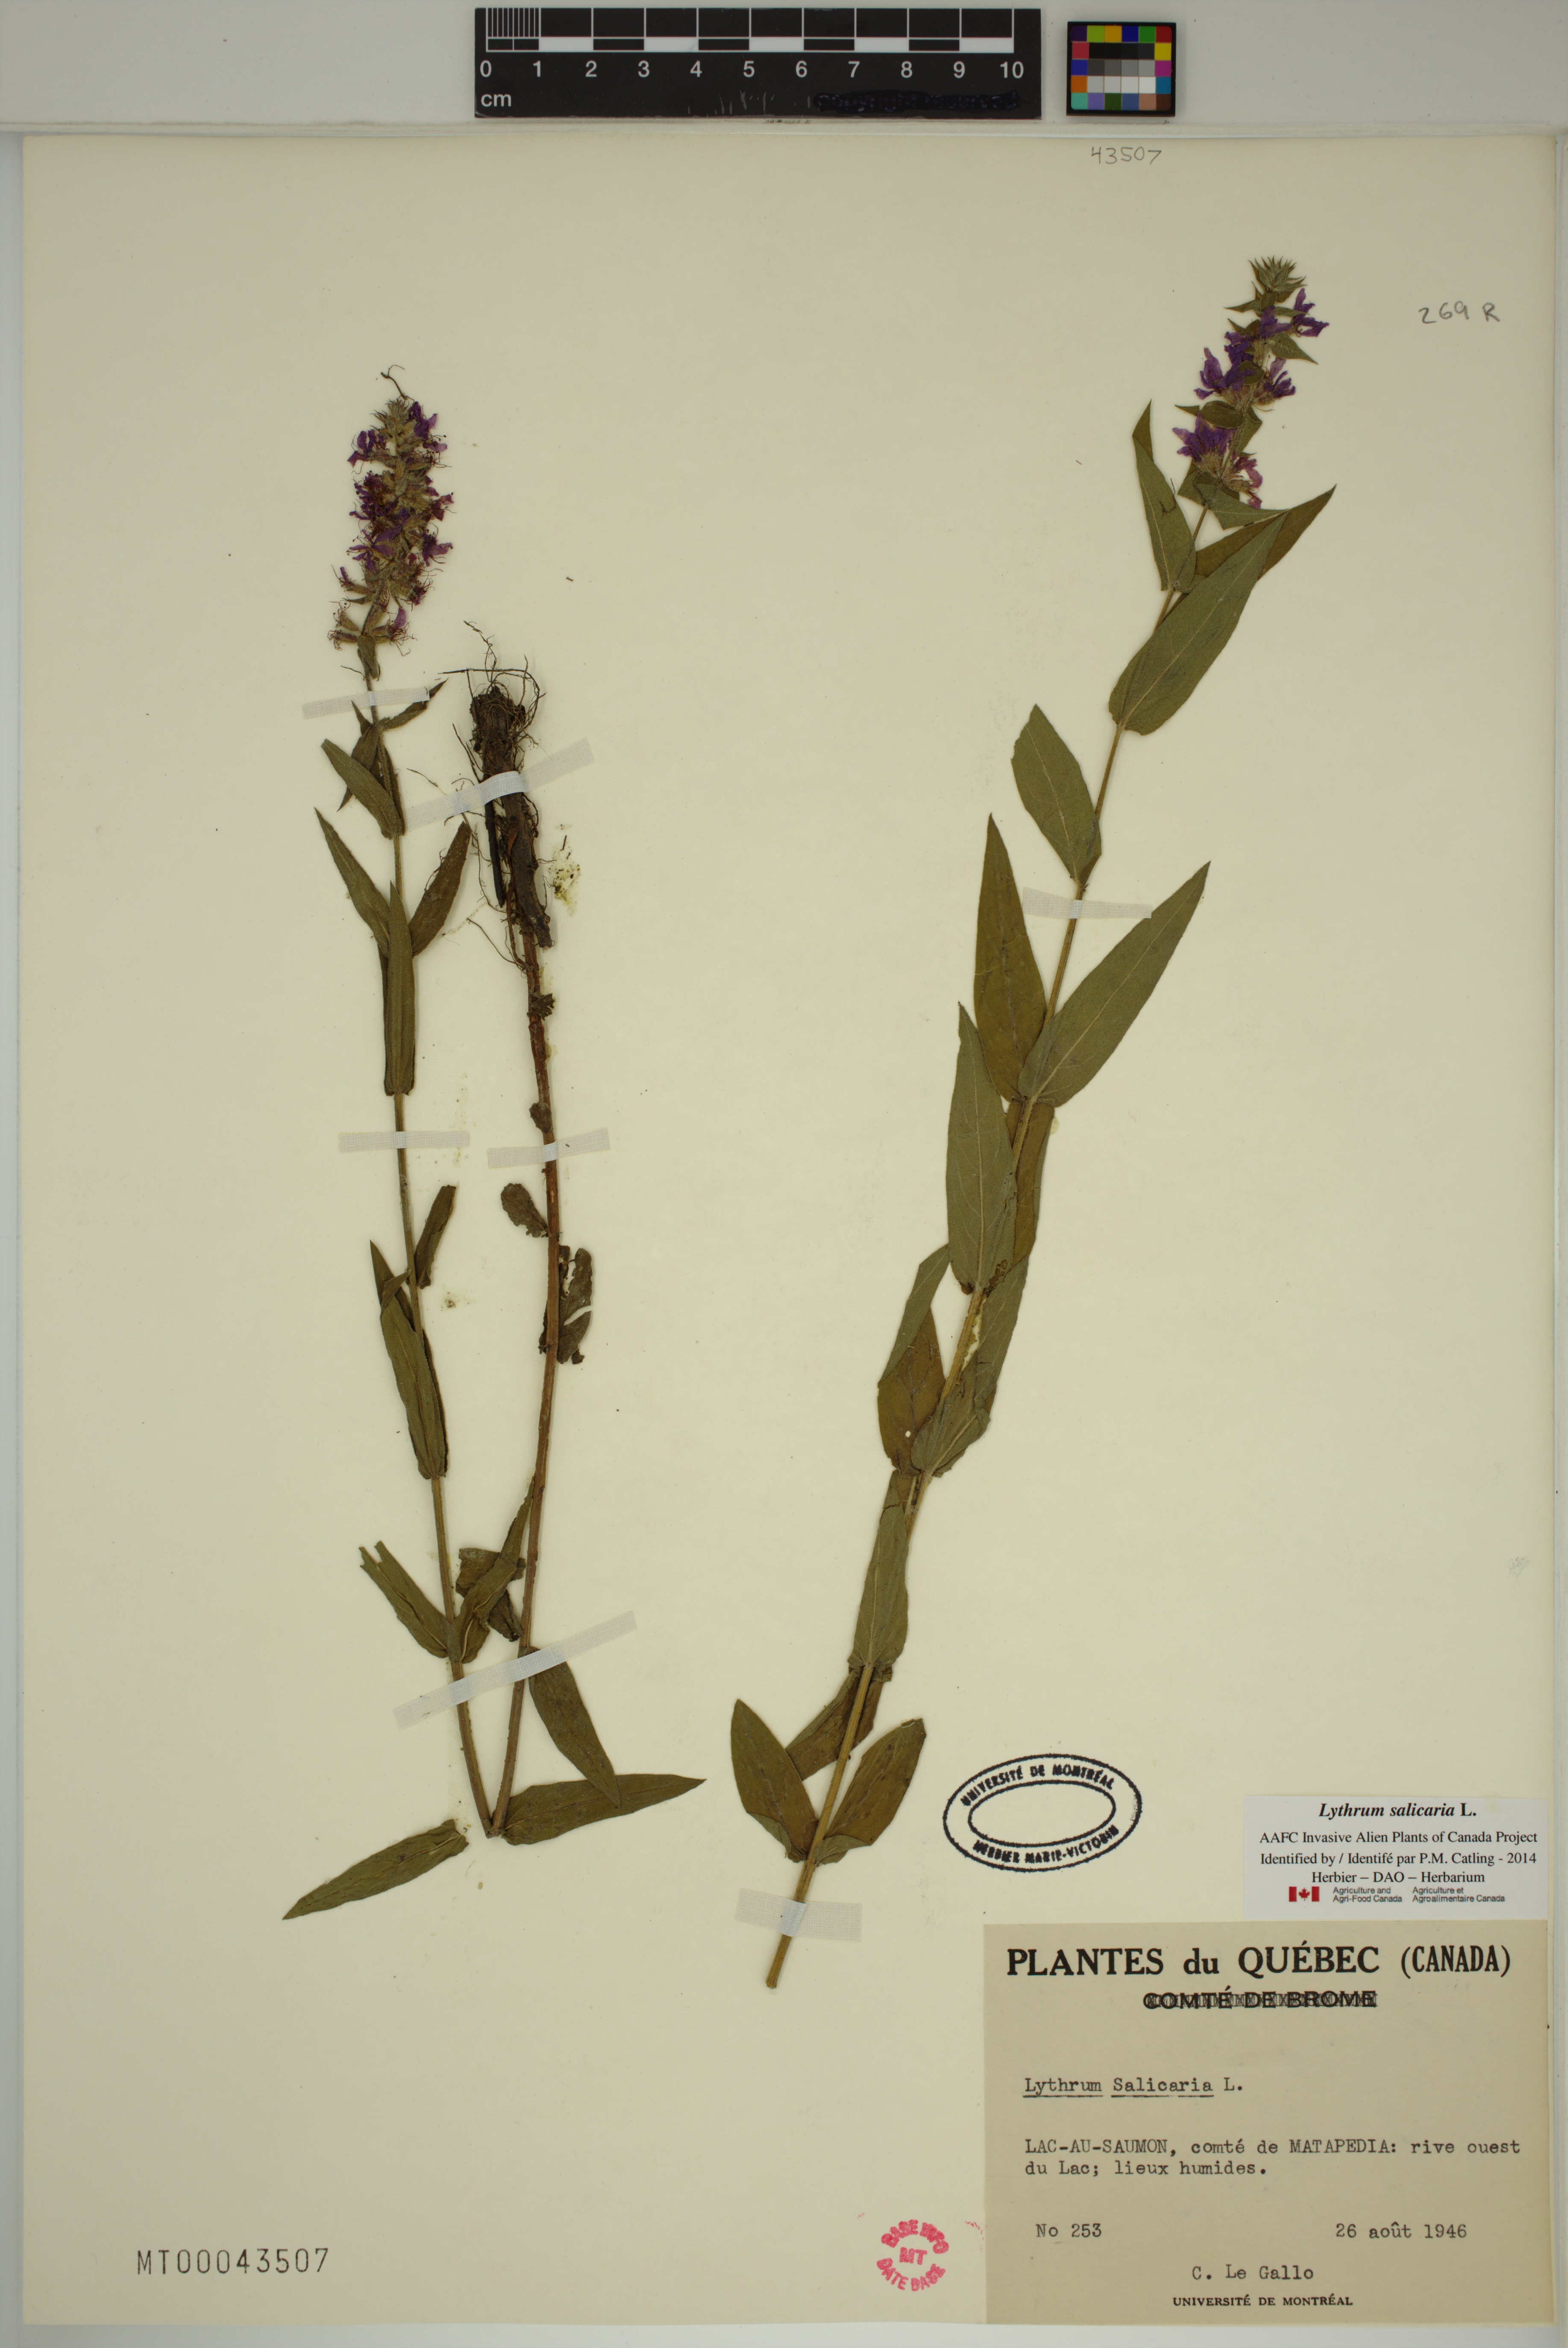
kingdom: Plantae
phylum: Tracheophyta
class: Magnoliopsida
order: Myrtales
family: Lythraceae
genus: Lythrum
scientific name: Lythrum salicaria
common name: Purple loosestrife
